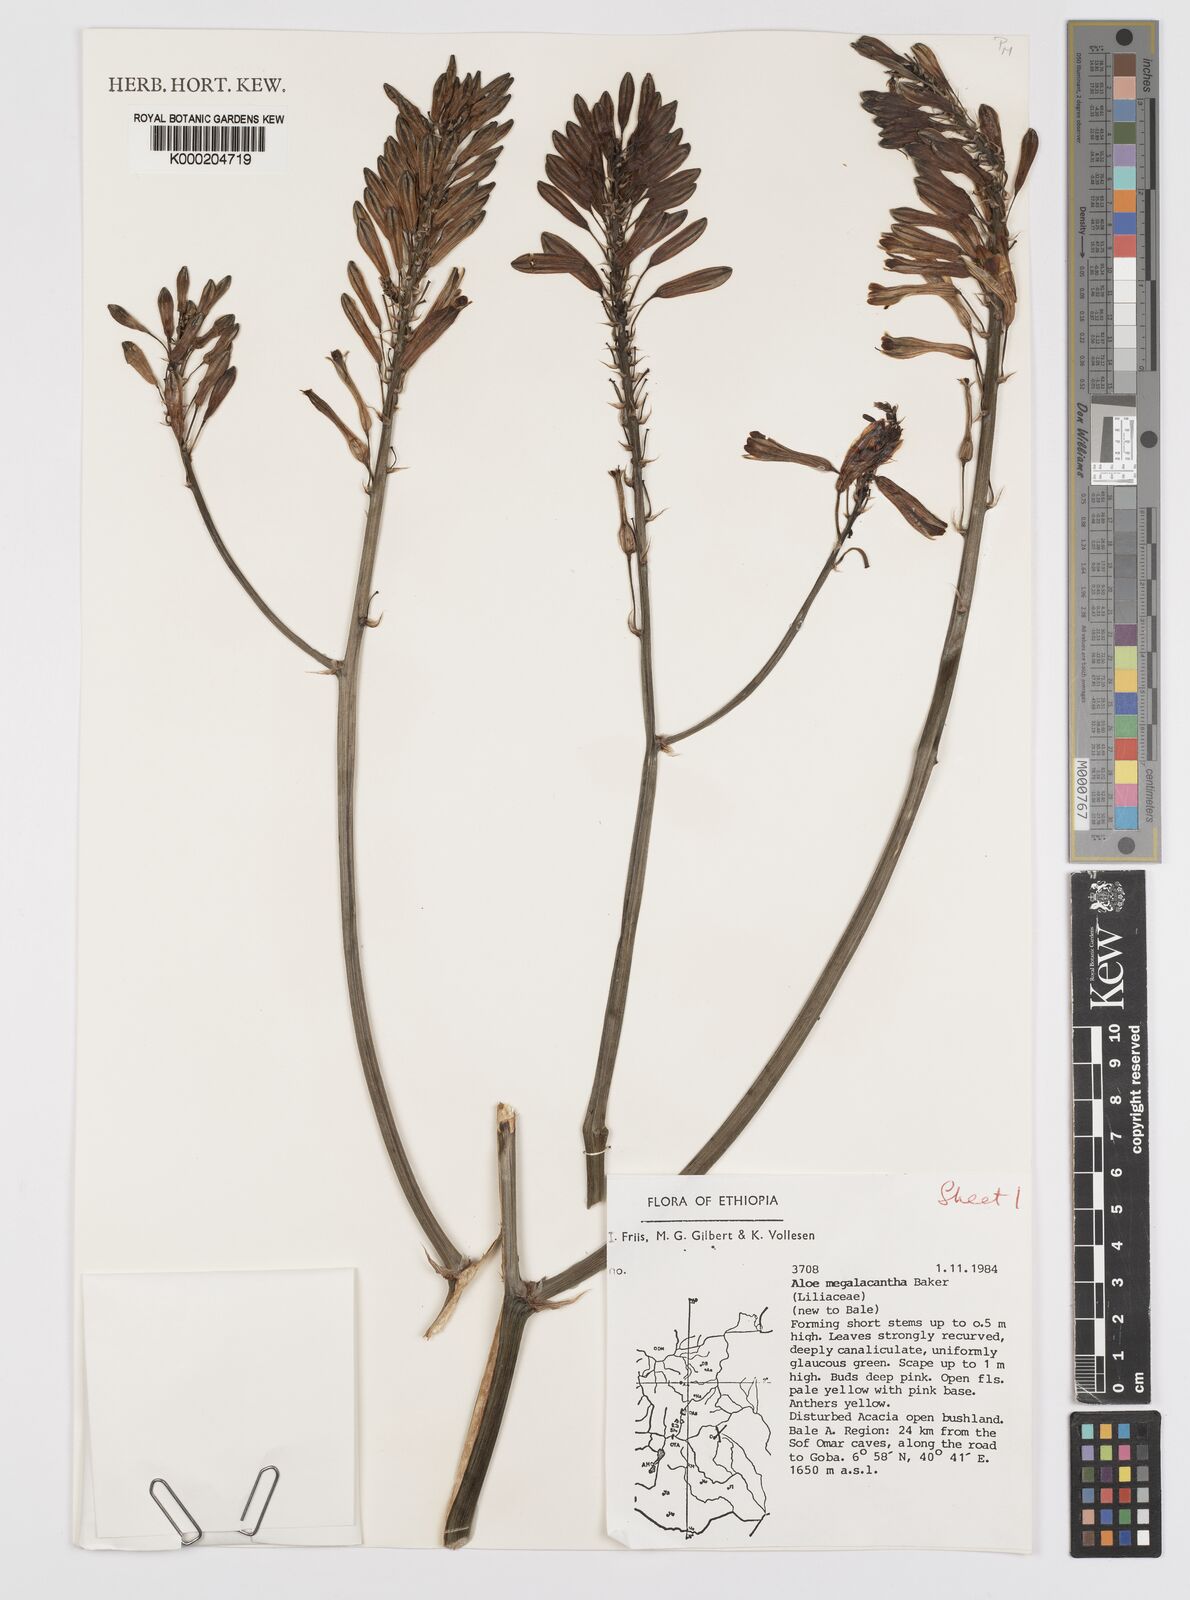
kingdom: Plantae
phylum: Tracheophyta
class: Liliopsida
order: Asparagales
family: Asphodelaceae
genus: Aloe
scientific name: Aloe megalacantha
